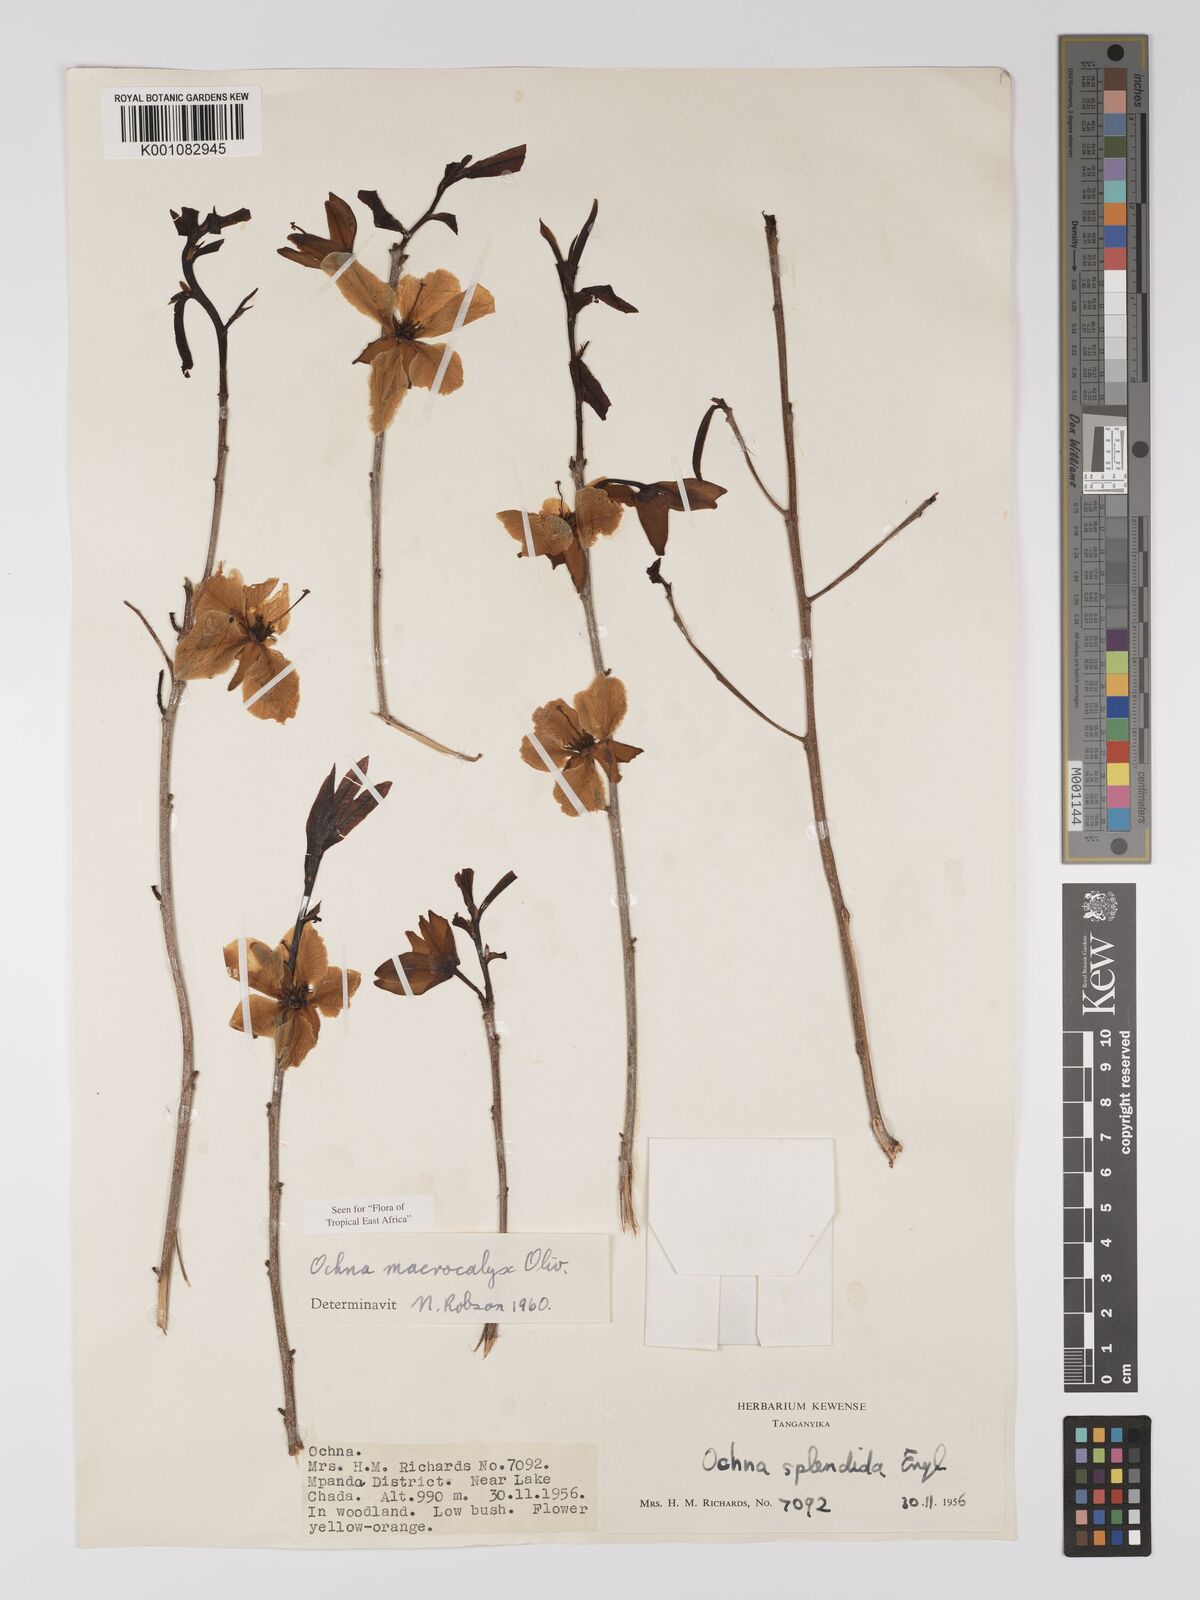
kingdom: Plantae
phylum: Tracheophyta
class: Magnoliopsida
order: Malpighiales
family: Ochnaceae
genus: Ochna
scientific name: Ochna macrocalyx
